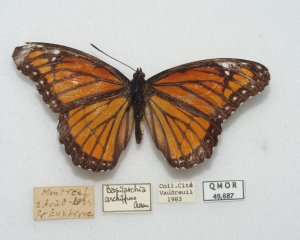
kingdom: Animalia
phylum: Arthropoda
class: Insecta
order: Lepidoptera
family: Nymphalidae
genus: Limenitis
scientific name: Limenitis archippus
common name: Viceroy
